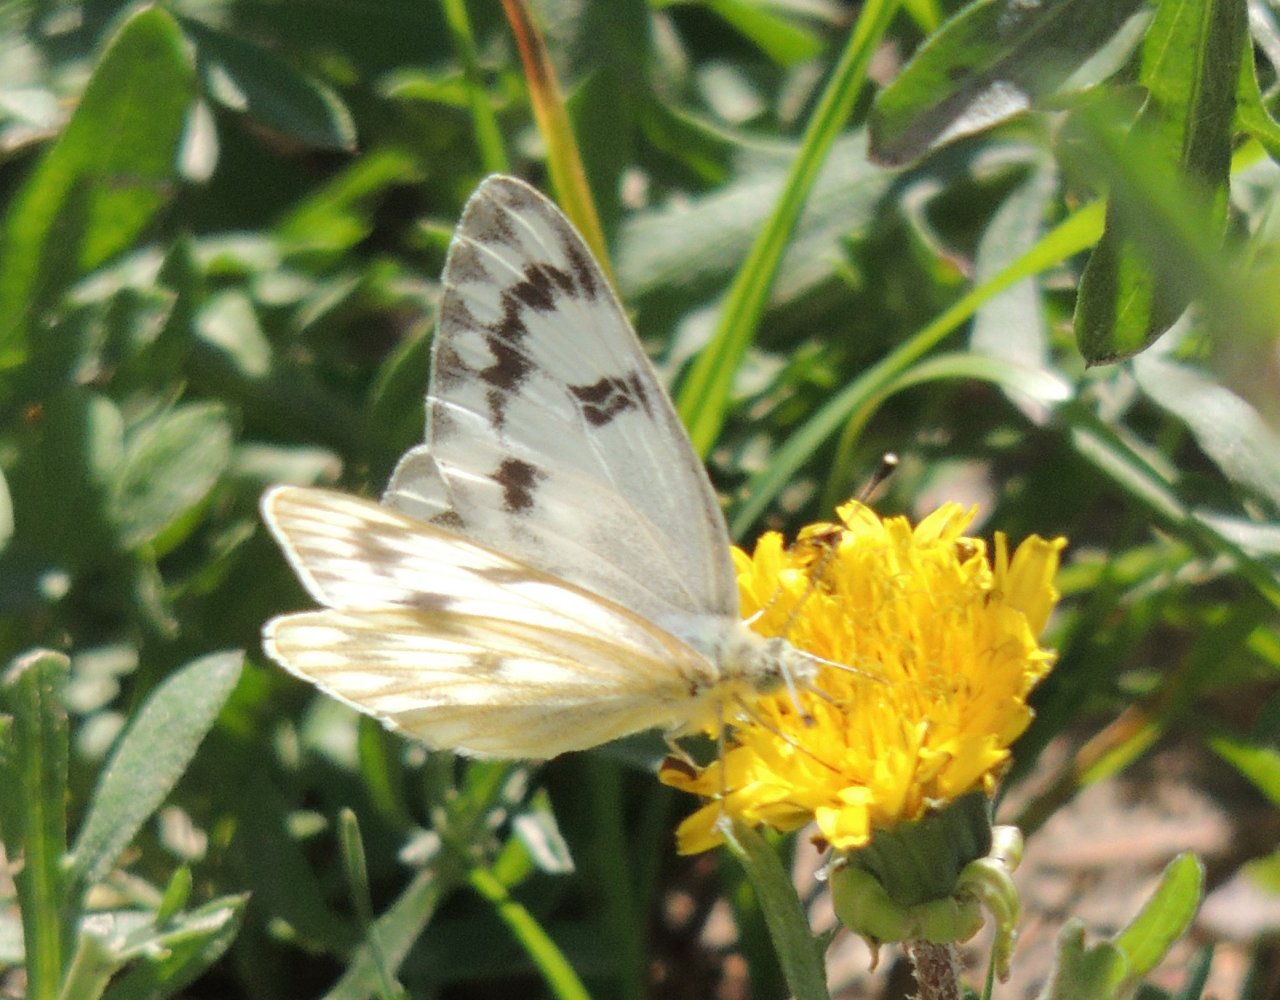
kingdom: Animalia
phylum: Arthropoda
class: Insecta
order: Lepidoptera
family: Pieridae
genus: Pontia
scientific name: Pontia occidentalis
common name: Western White
